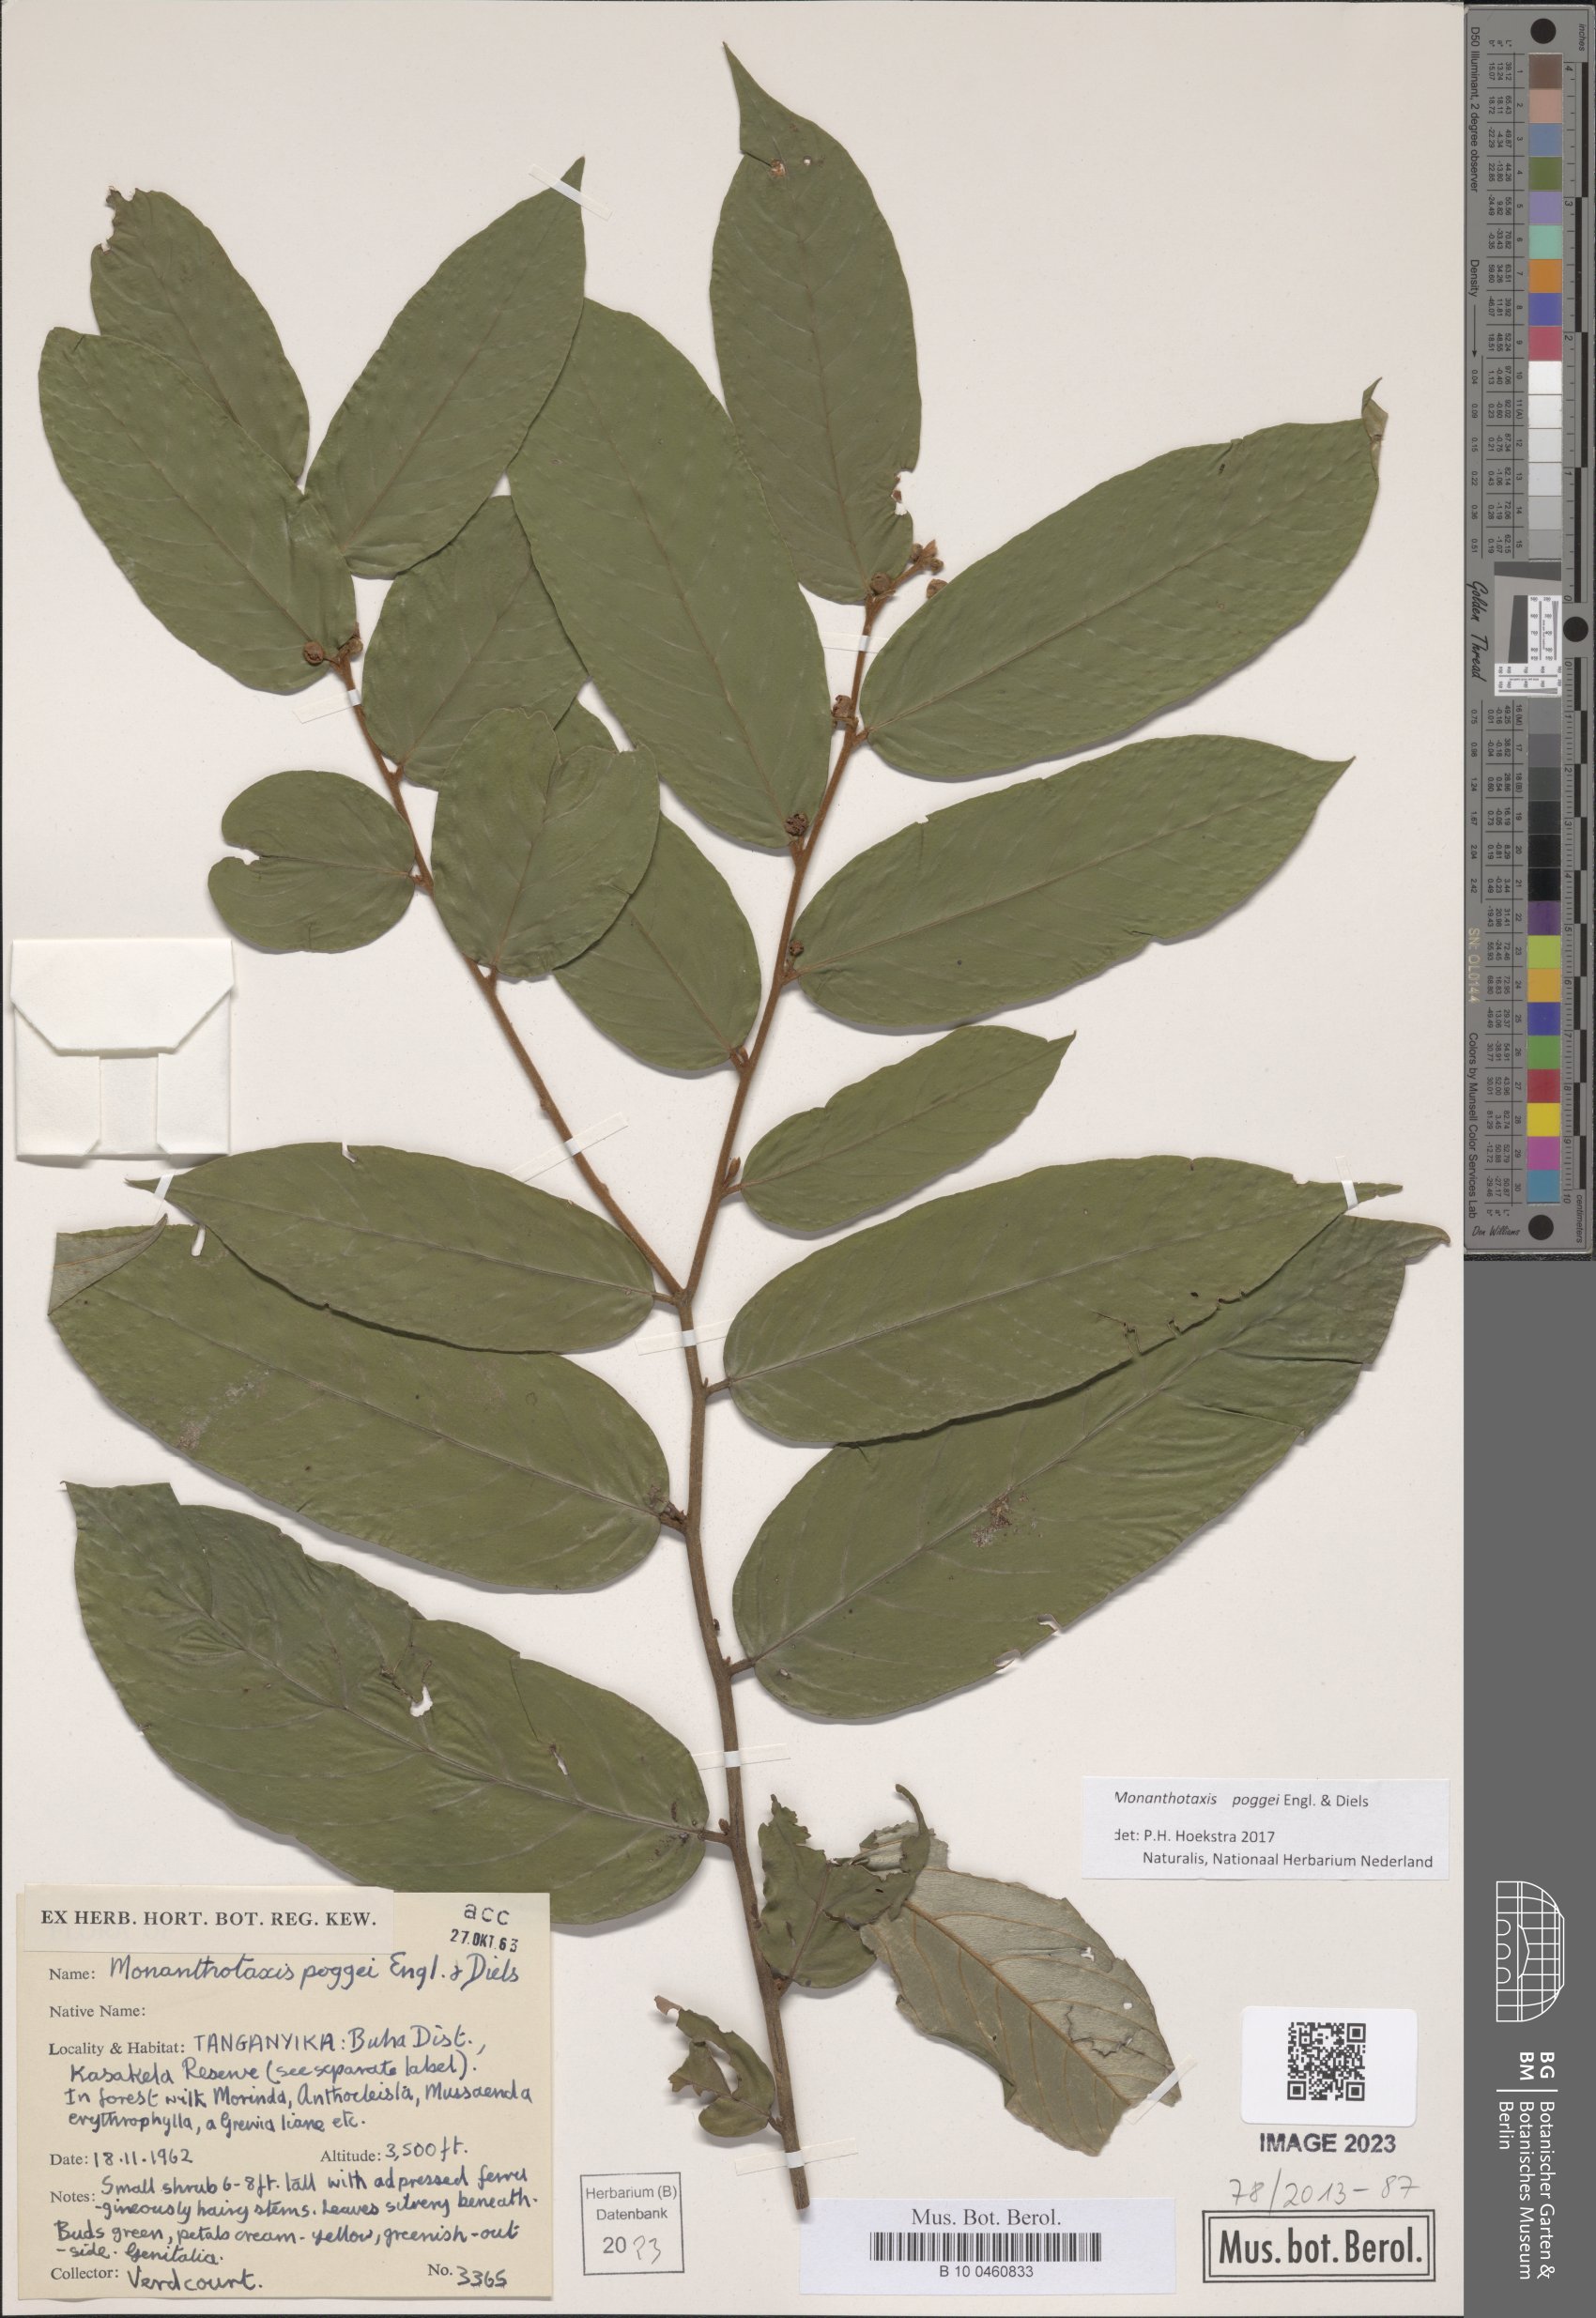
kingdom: Plantae
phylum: Tracheophyta
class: Magnoliopsida
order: Magnoliales
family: Annonaceae
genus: Monanthotaxis
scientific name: Monanthotaxis poggei
